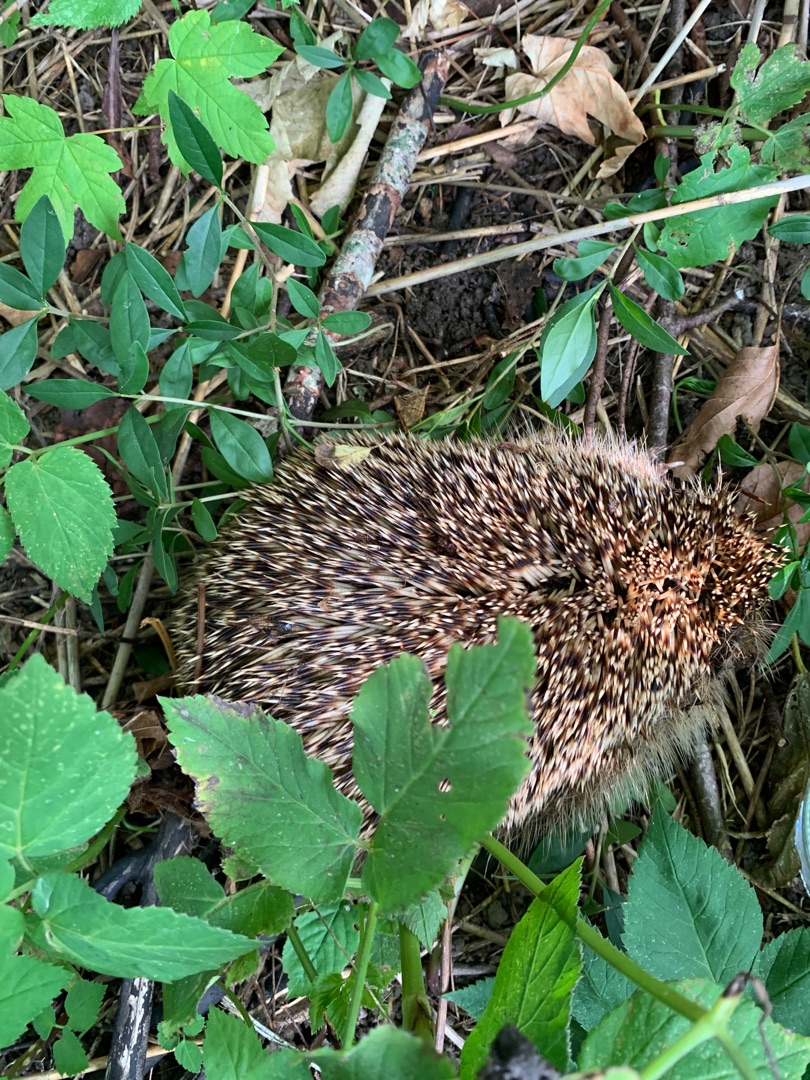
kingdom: Animalia
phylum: Chordata
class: Mammalia
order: Erinaceomorpha
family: Erinaceidae
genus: Erinaceus
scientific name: Erinaceus europaeus
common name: Pindsvin
